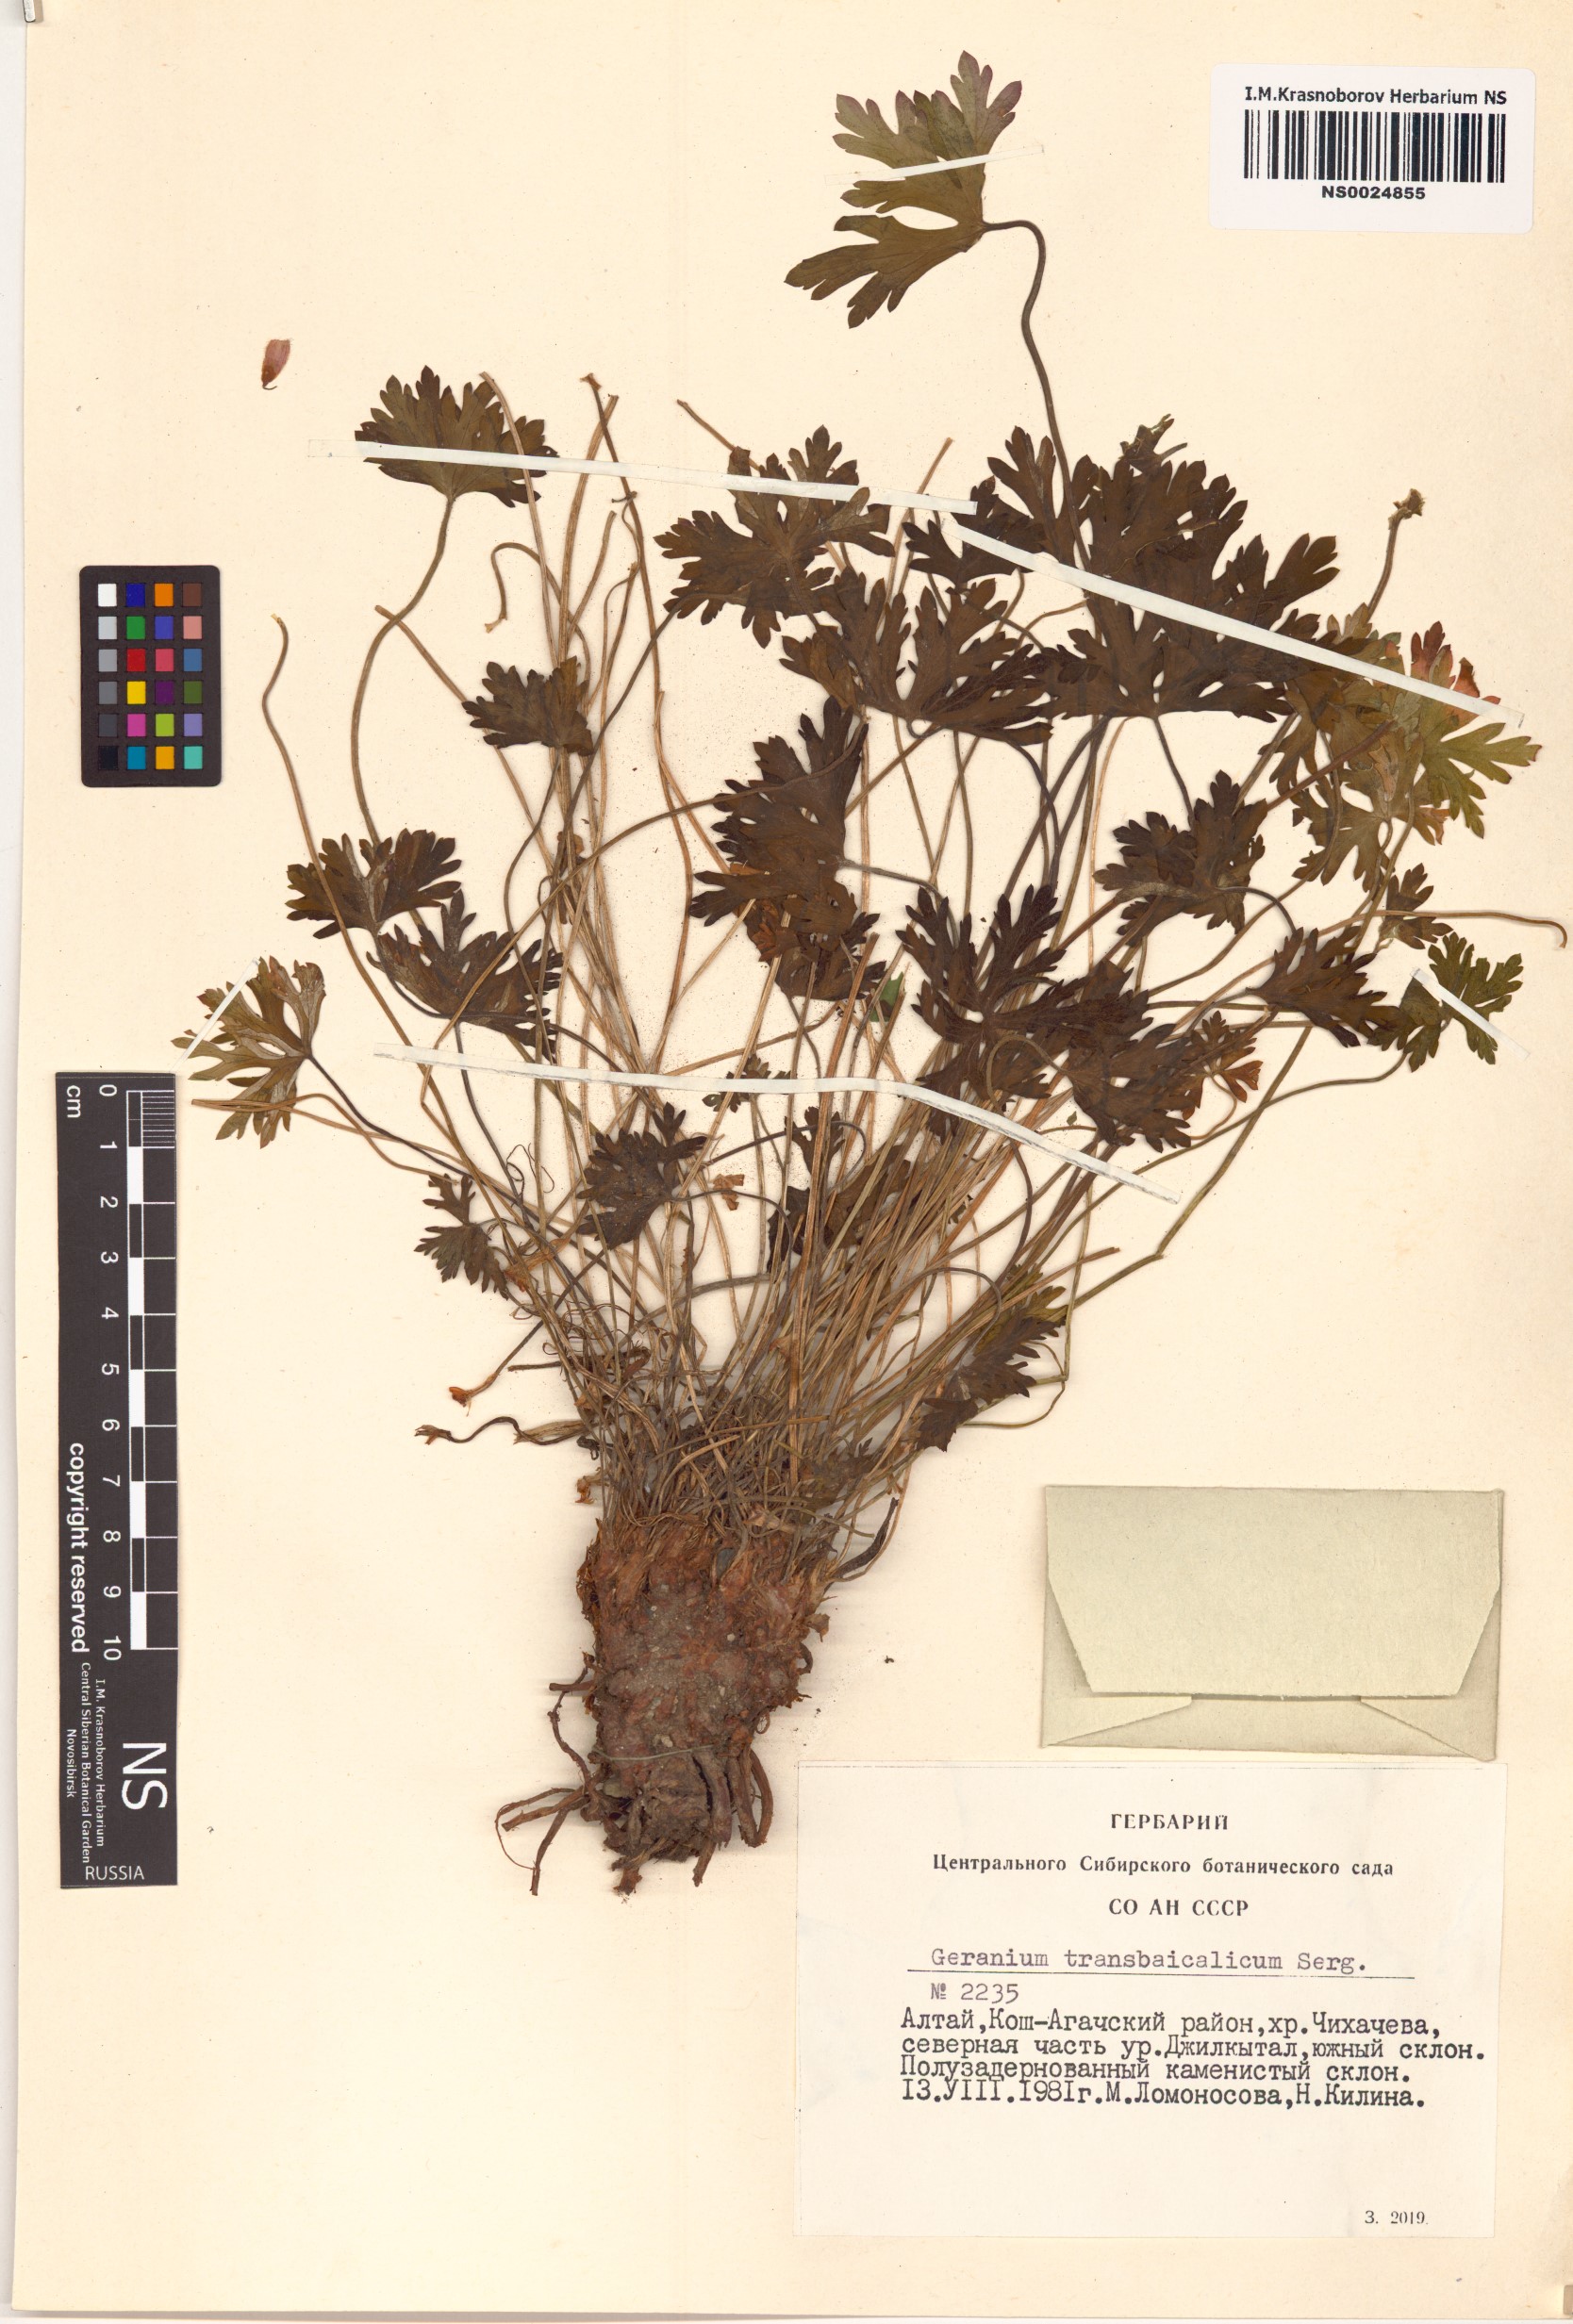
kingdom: Plantae
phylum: Tracheophyta
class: Magnoliopsida
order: Geraniales
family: Geraniaceae
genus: Geranium
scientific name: Geranium pratense
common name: Meadow crane's-bill
